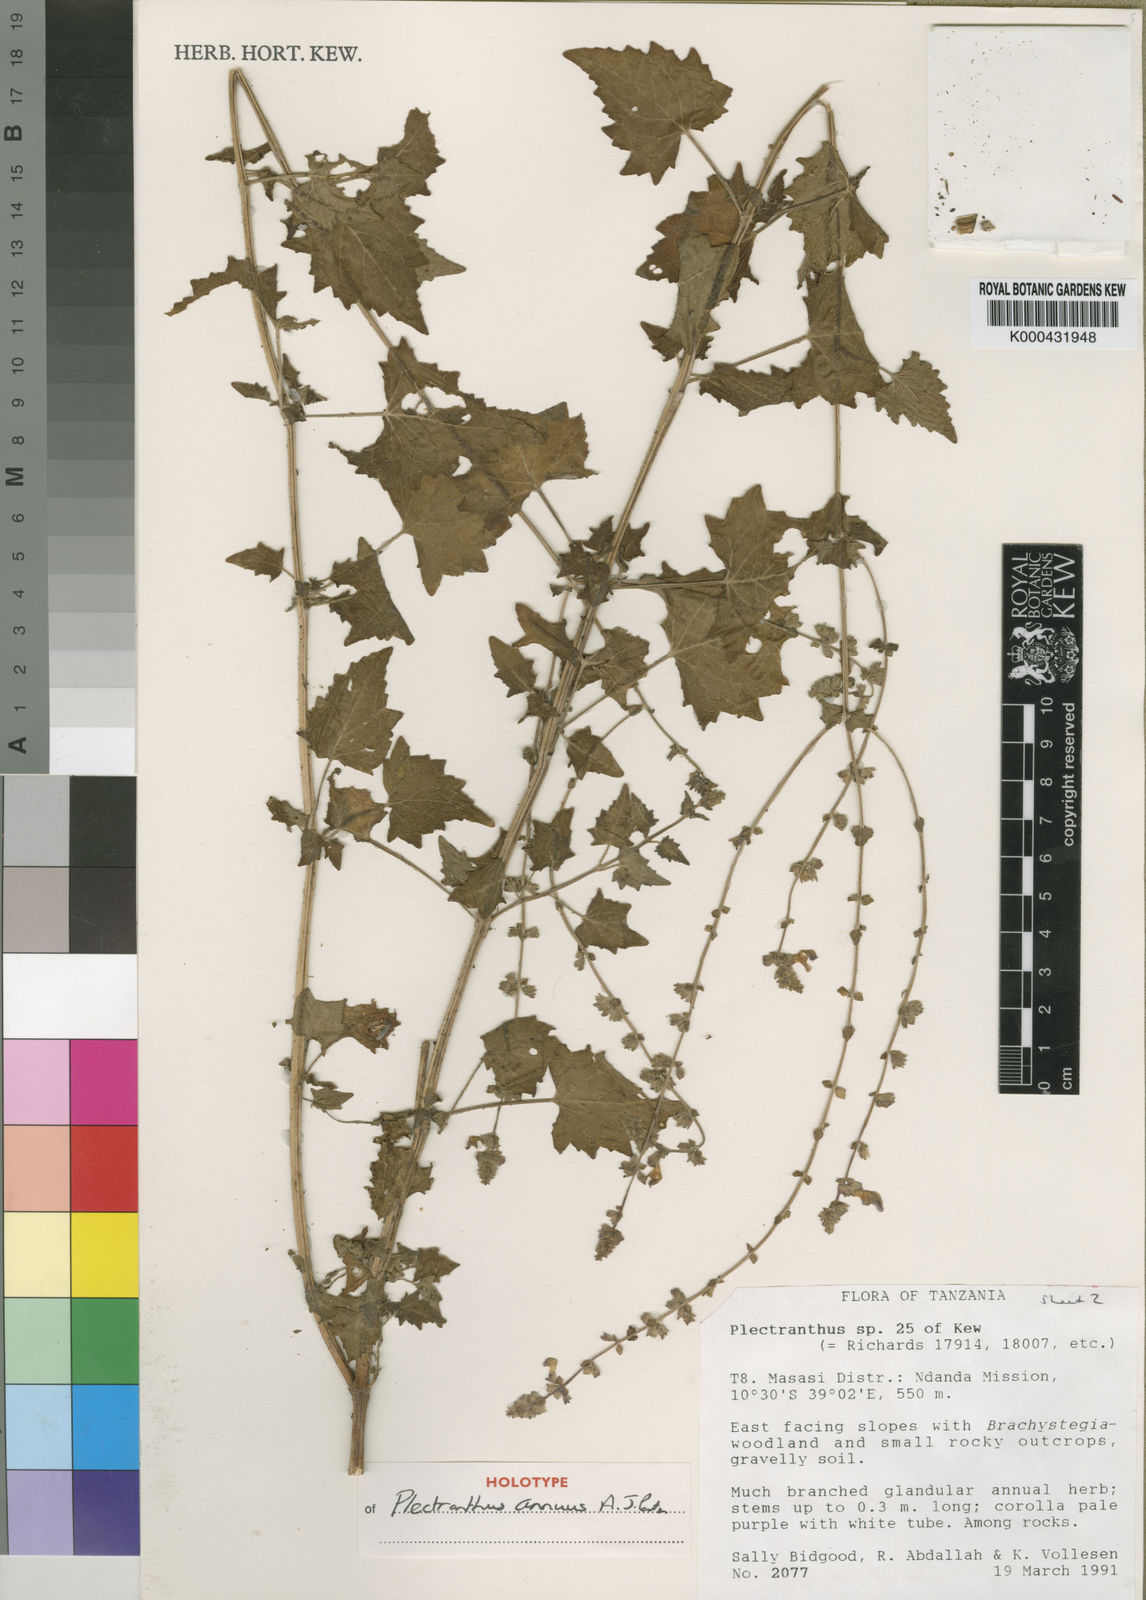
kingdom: Plantae
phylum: Tracheophyta
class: Magnoliopsida
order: Lamiales
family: Lamiaceae
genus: Equilabium
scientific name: Equilabium annuum
